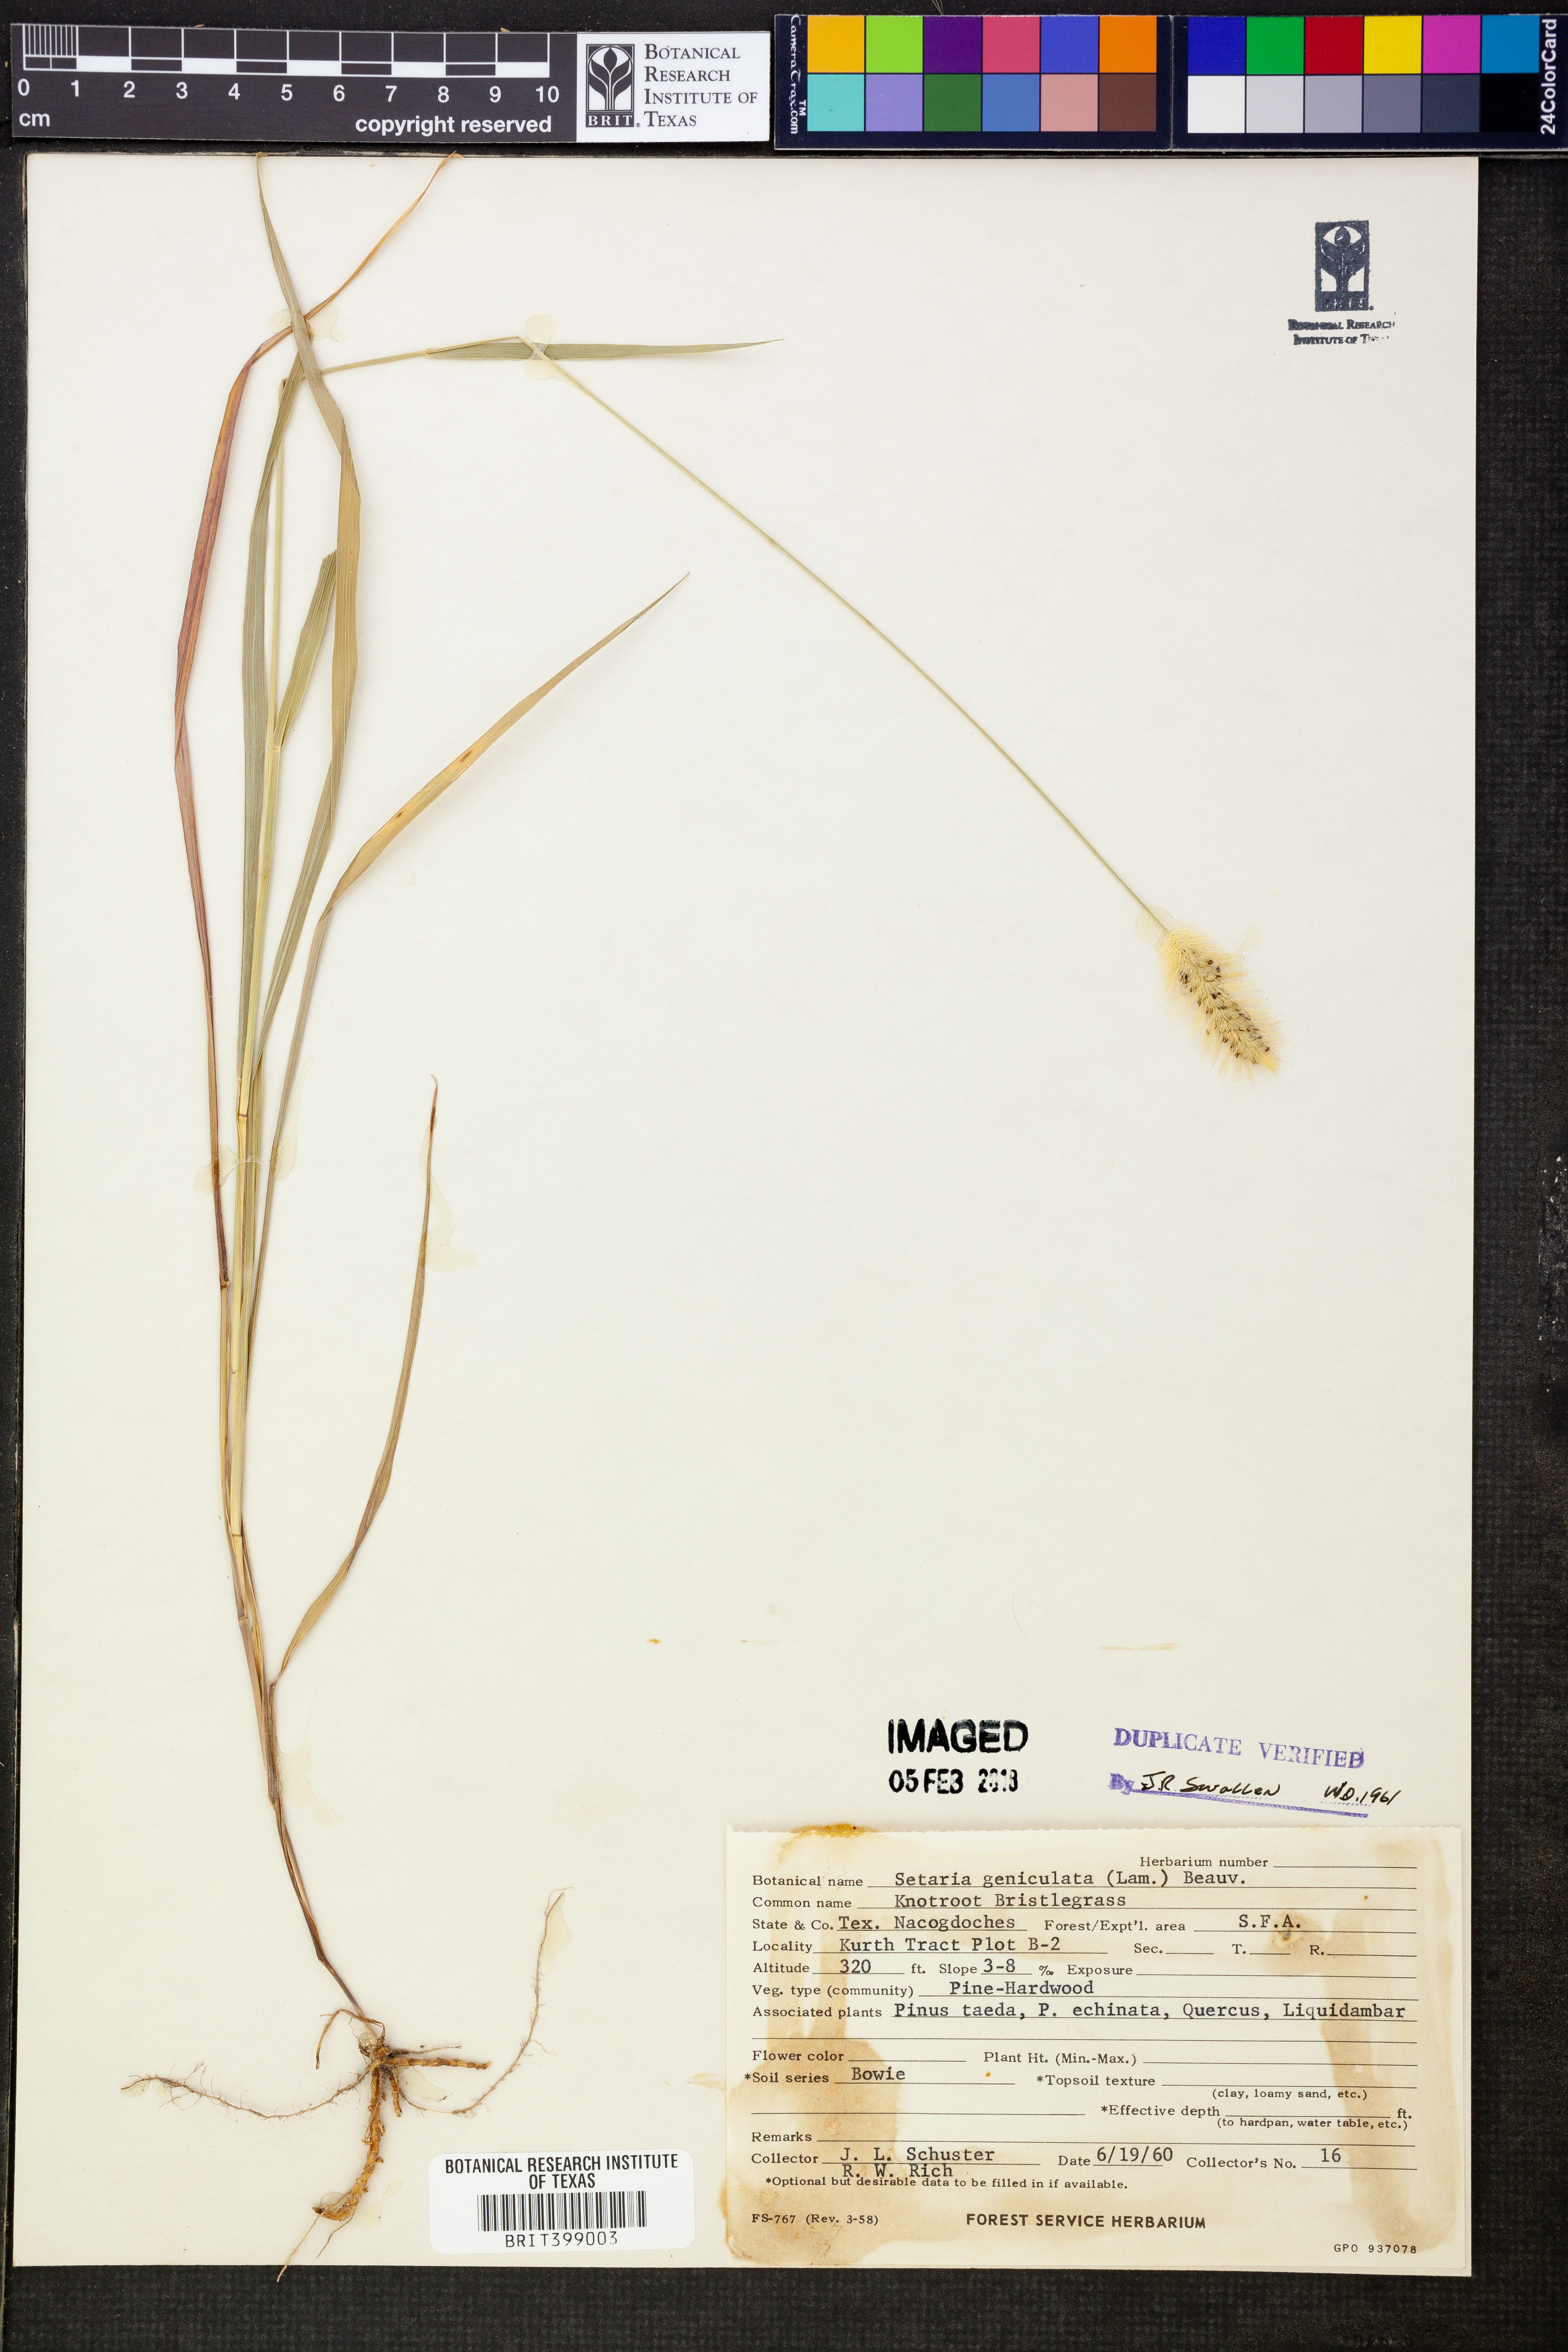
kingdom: Plantae
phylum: Tracheophyta
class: Liliopsida
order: Poales
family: Poaceae
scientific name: Poaceae
